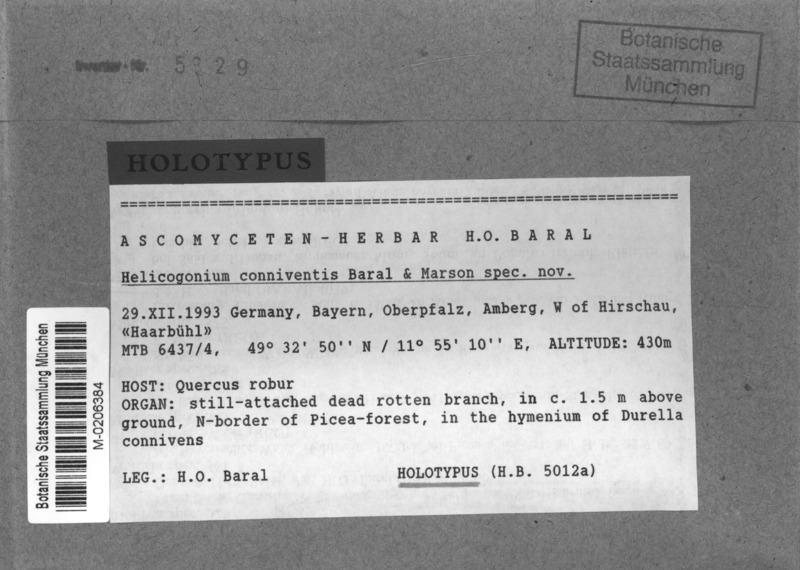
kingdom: Fungi
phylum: Ascomycota
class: Leotiomycetes
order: Phacidiales
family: Helicogoniaceae
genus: Helicogonium
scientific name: Helicogonium conniventis
